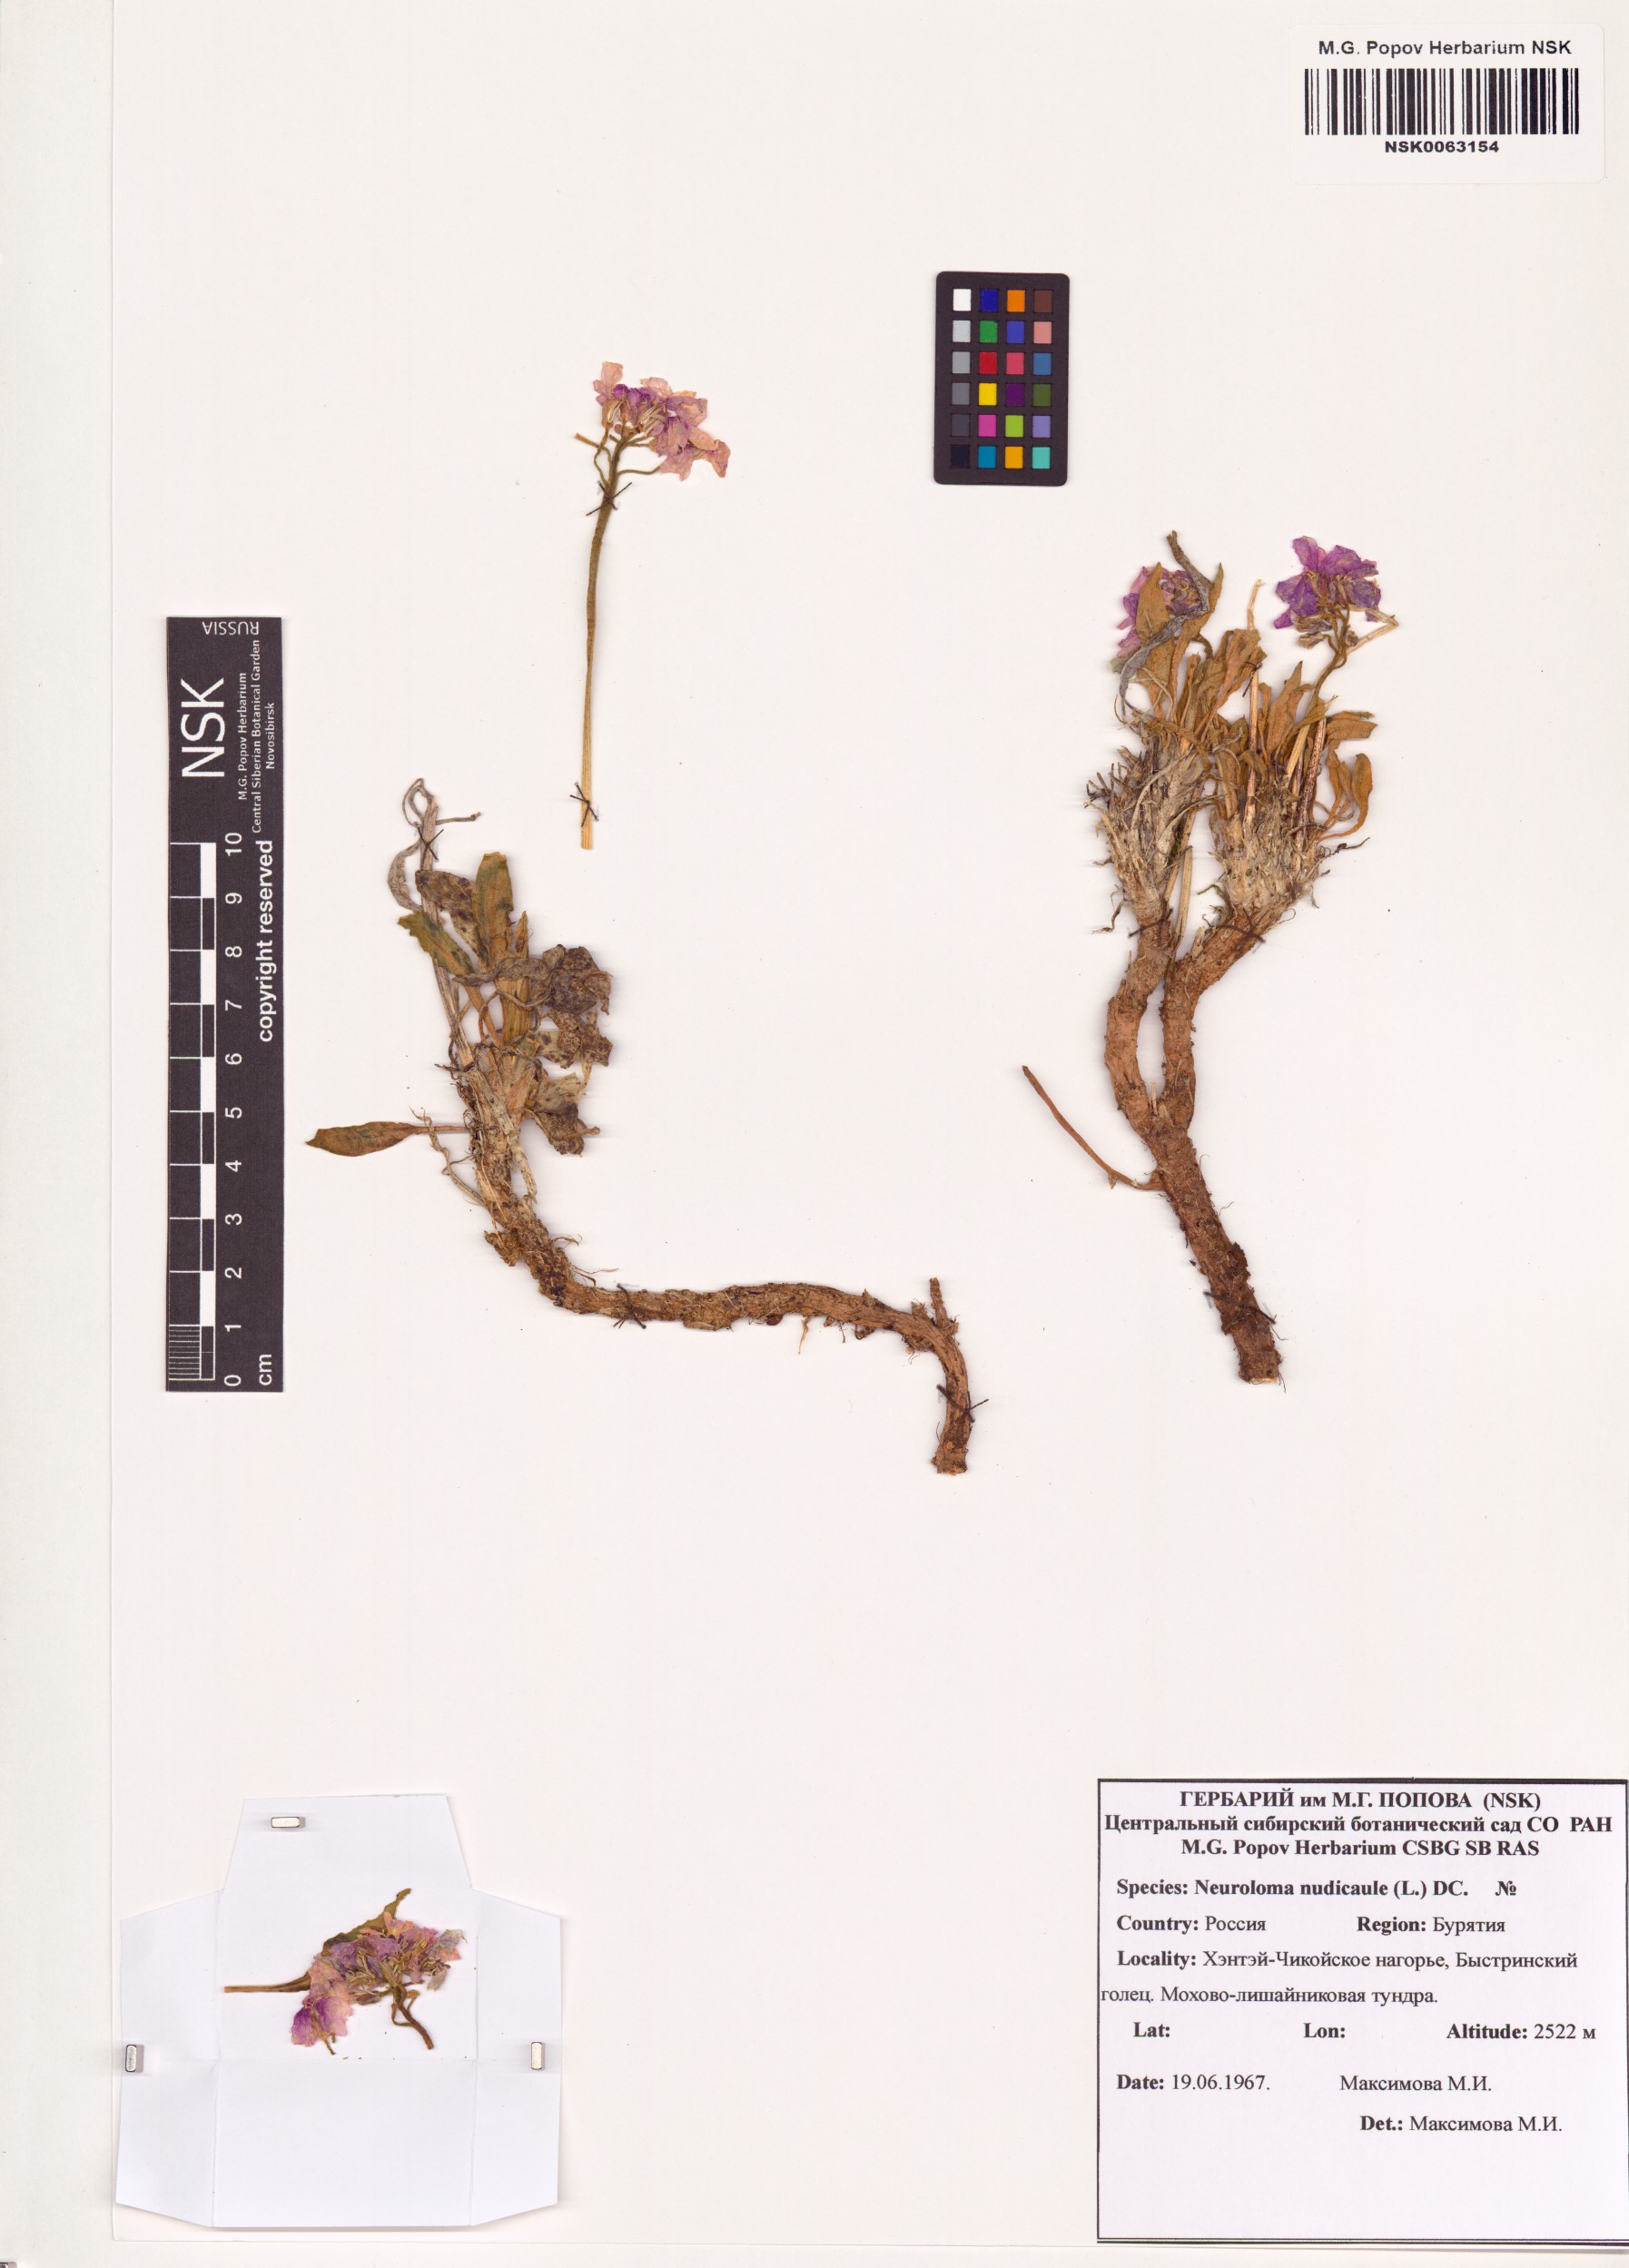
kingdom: Plantae
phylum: Tracheophyta
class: Magnoliopsida
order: Brassicales
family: Brassicaceae
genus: Parrya
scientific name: Parrya nudicaulis
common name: Naked-stemmed false wallflower
